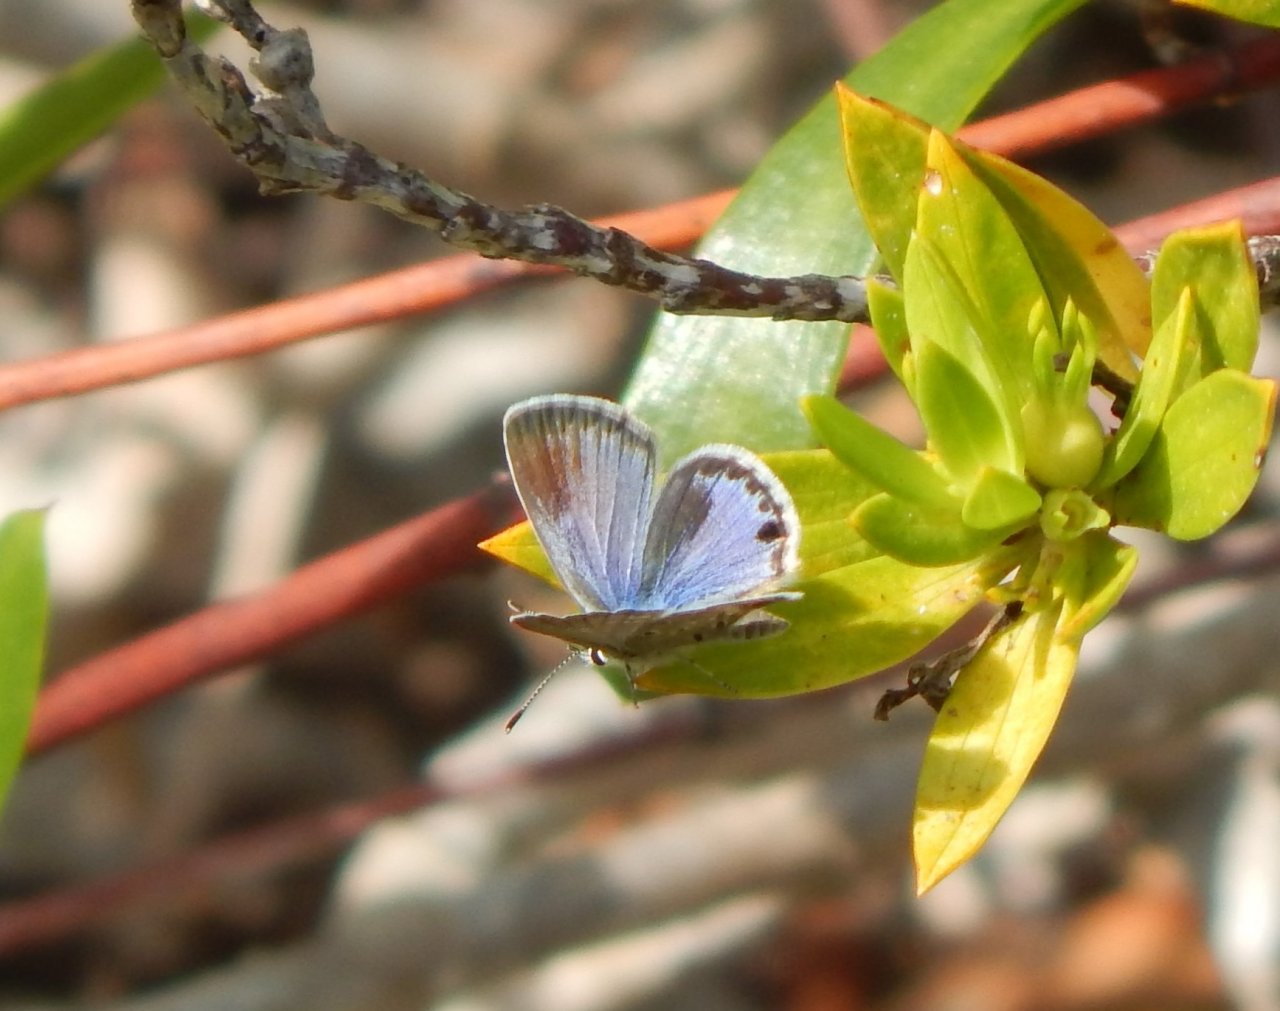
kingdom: Animalia
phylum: Arthropoda
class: Insecta
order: Lepidoptera
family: Lycaenidae
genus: Hemiargus
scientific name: Hemiargus ceraunus
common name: Ceraunus Blue
